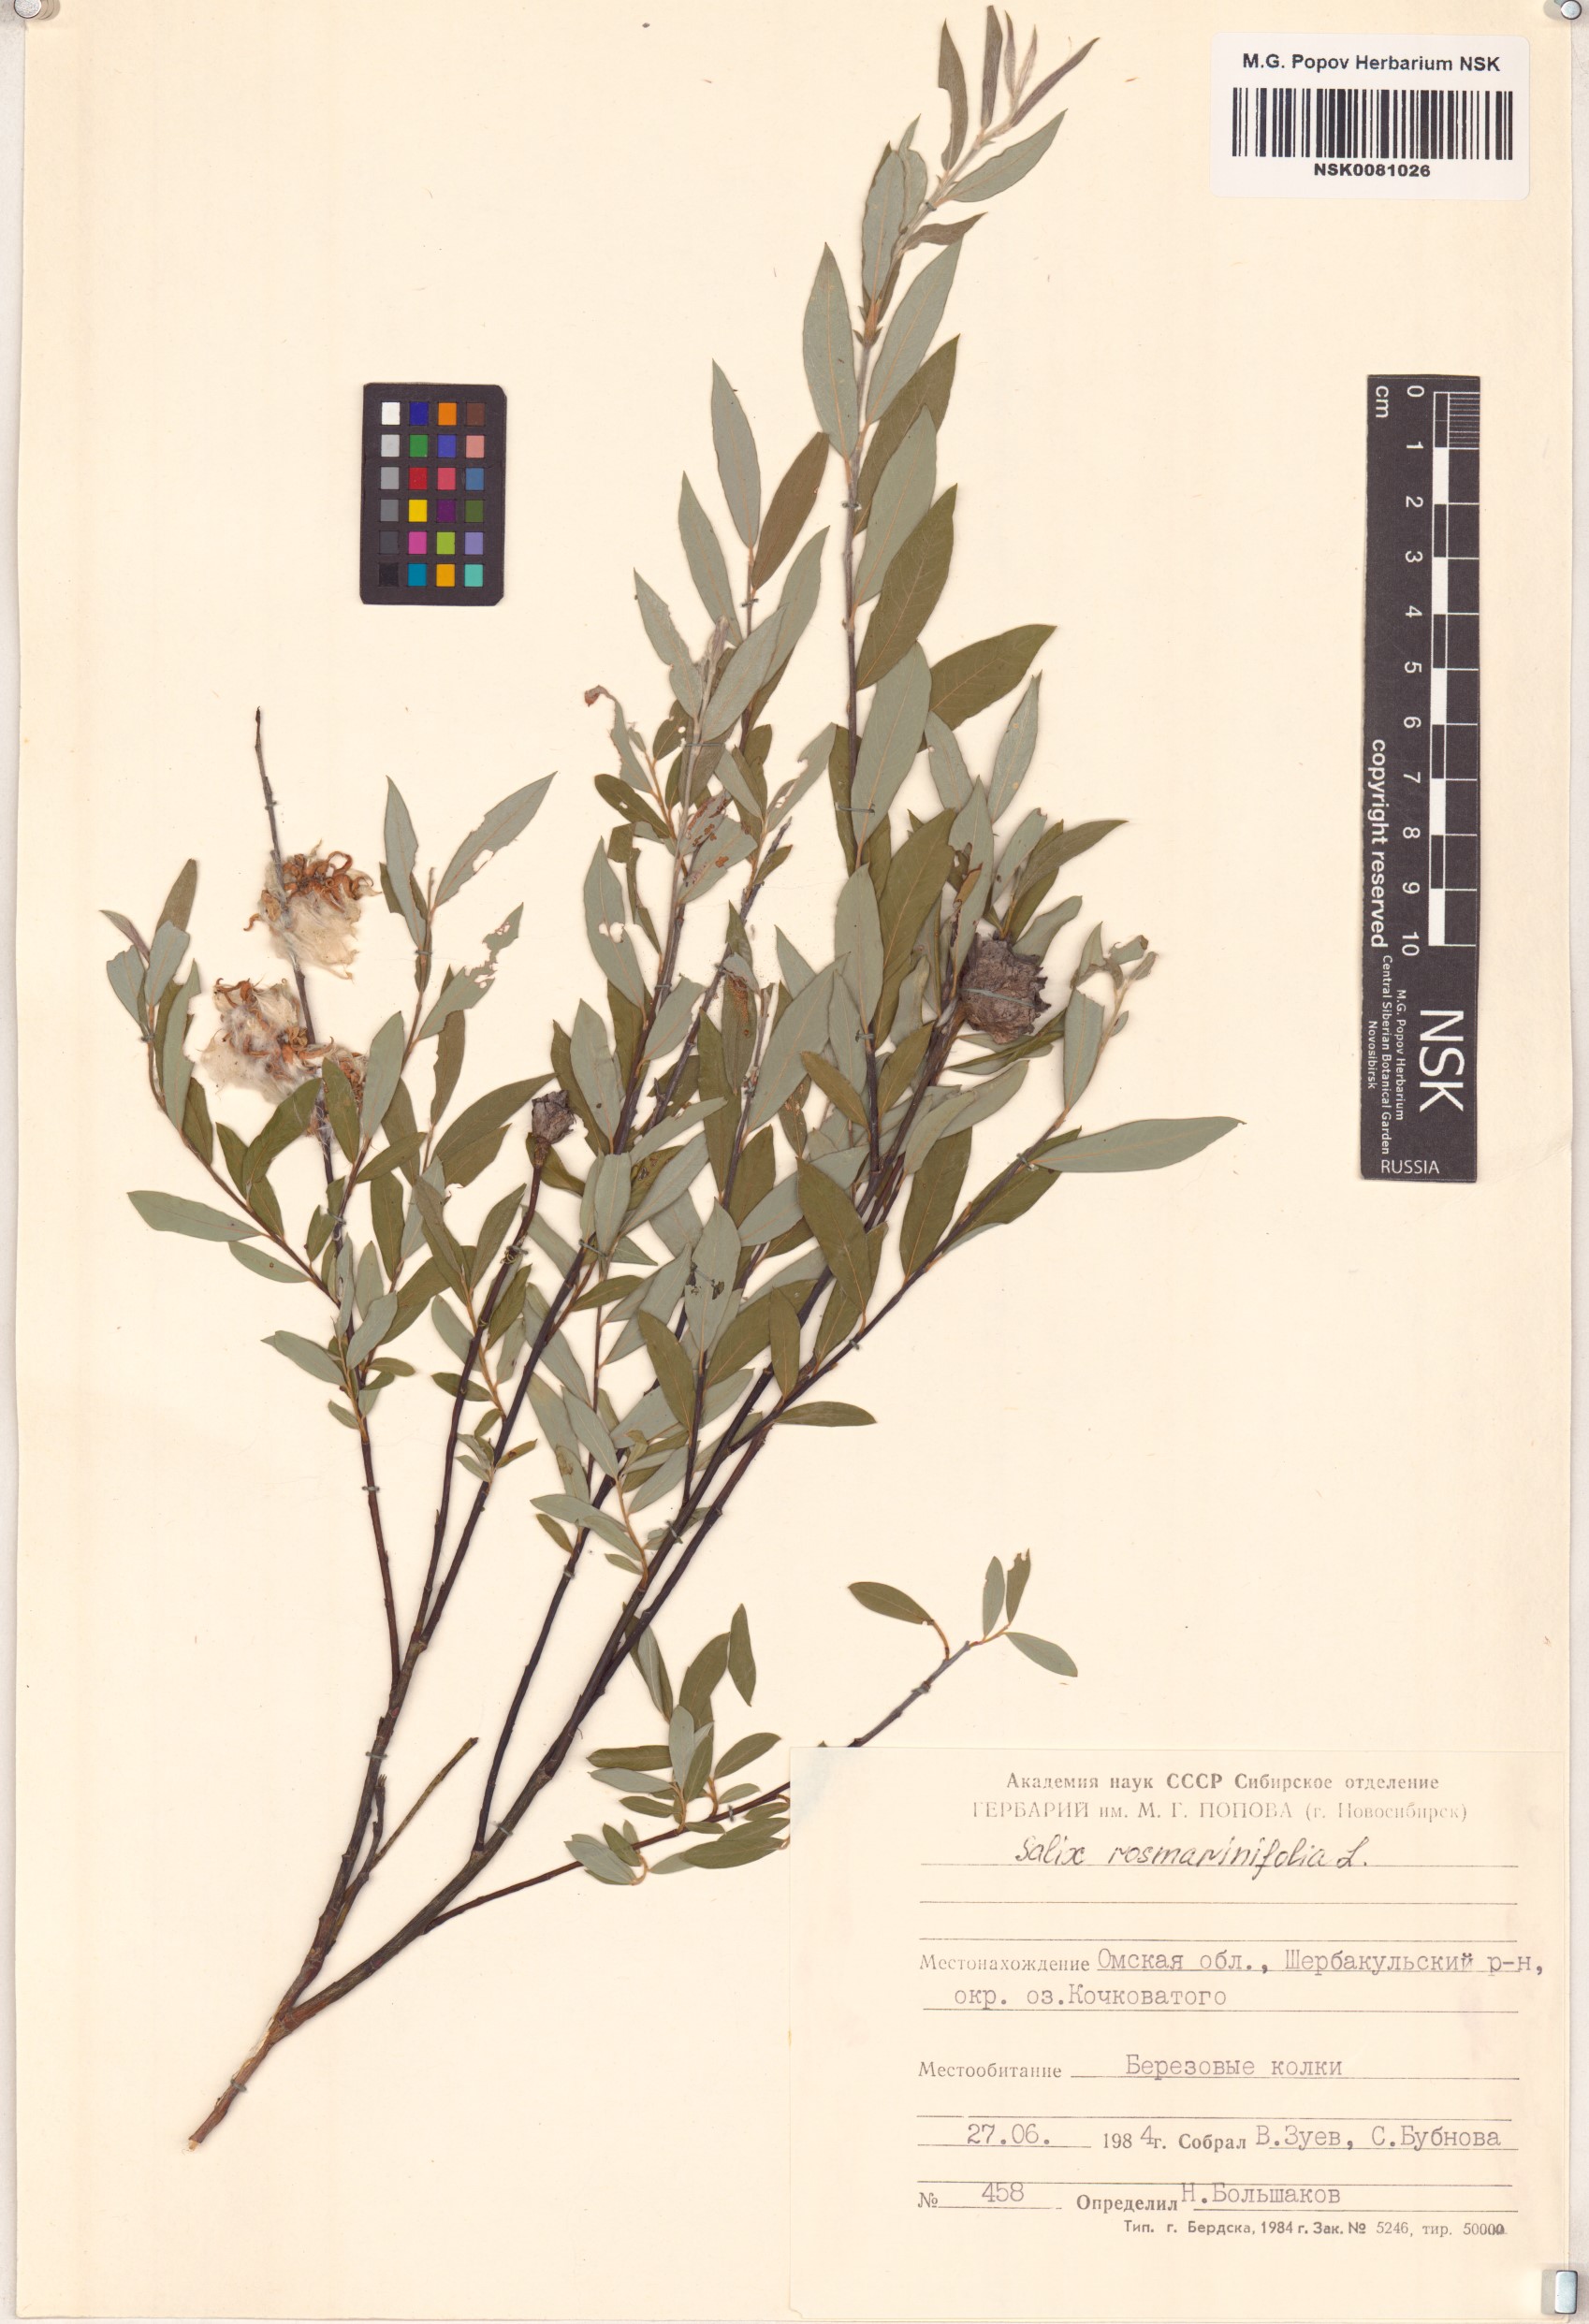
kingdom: Plantae
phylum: Tracheophyta
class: Magnoliopsida
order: Malpighiales
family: Salicaceae
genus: Salix
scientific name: Salix rosmarinifolia
